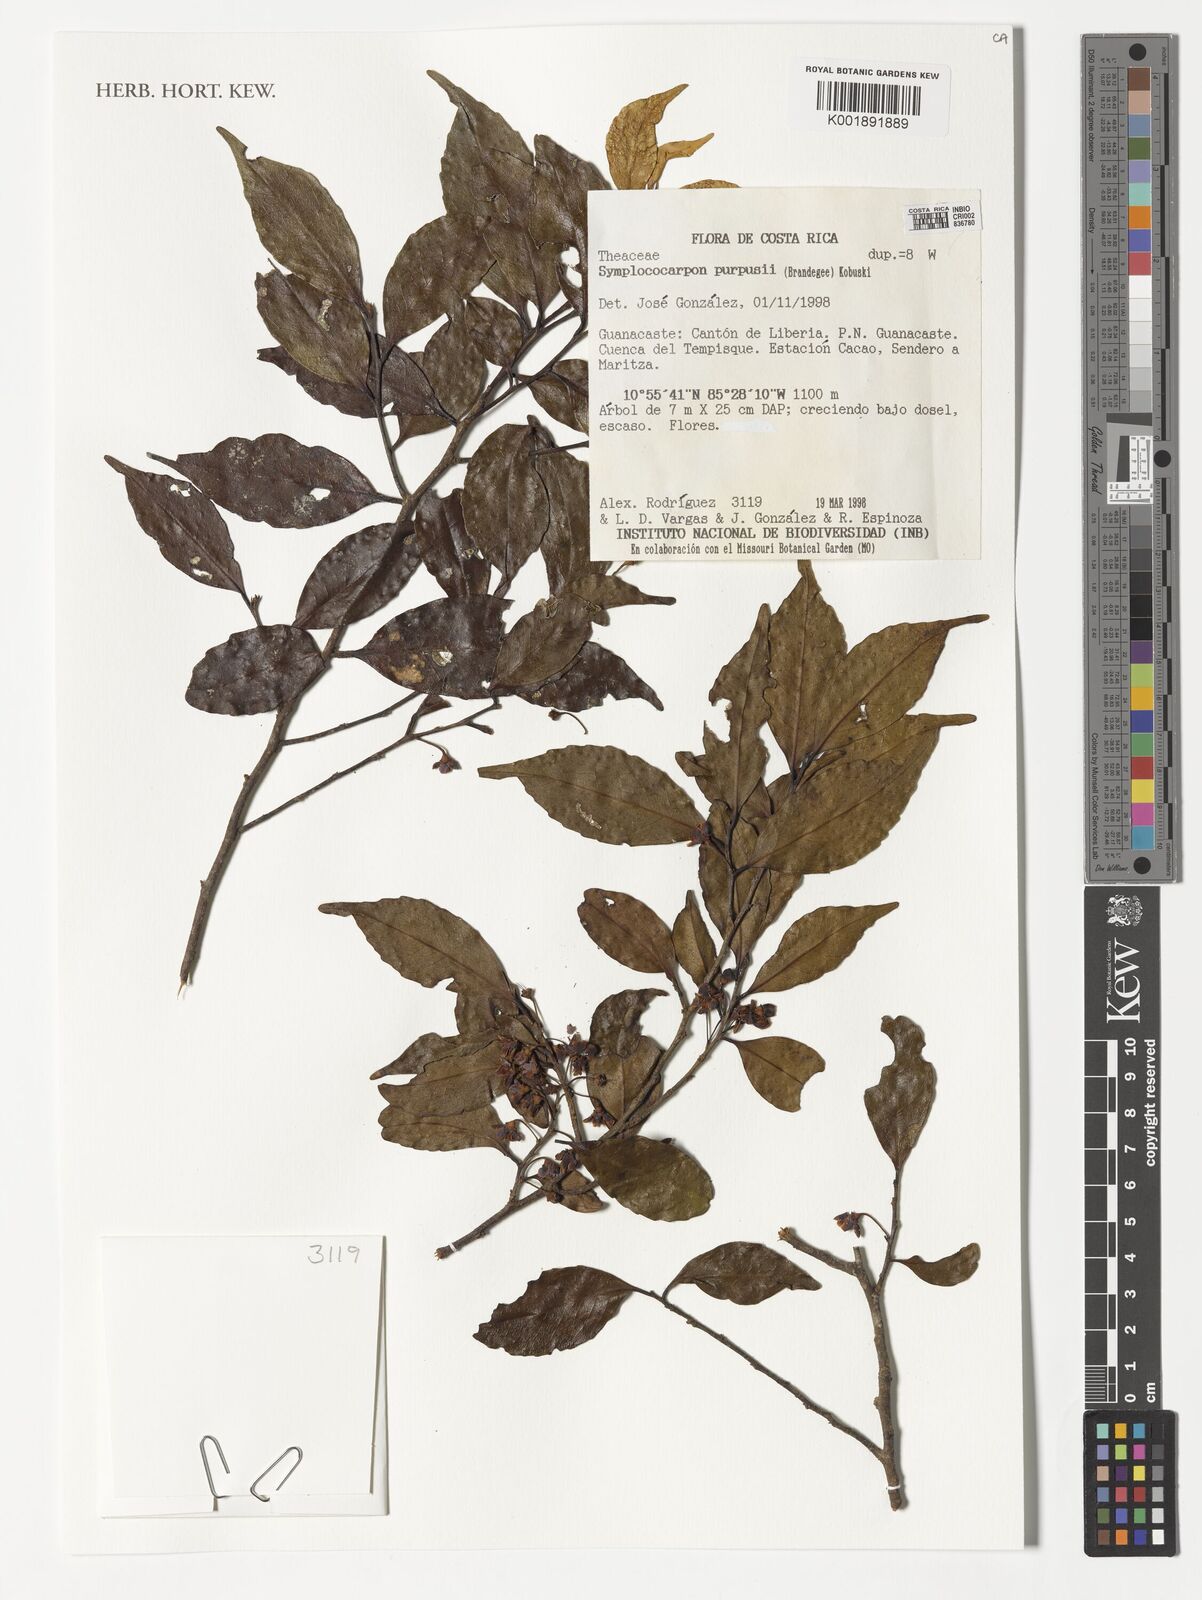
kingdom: Plantae
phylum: Tracheophyta
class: Magnoliopsida
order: Ericales
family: Pentaphylacaceae
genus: Symplococarpon
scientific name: Symplococarpon purpusii
